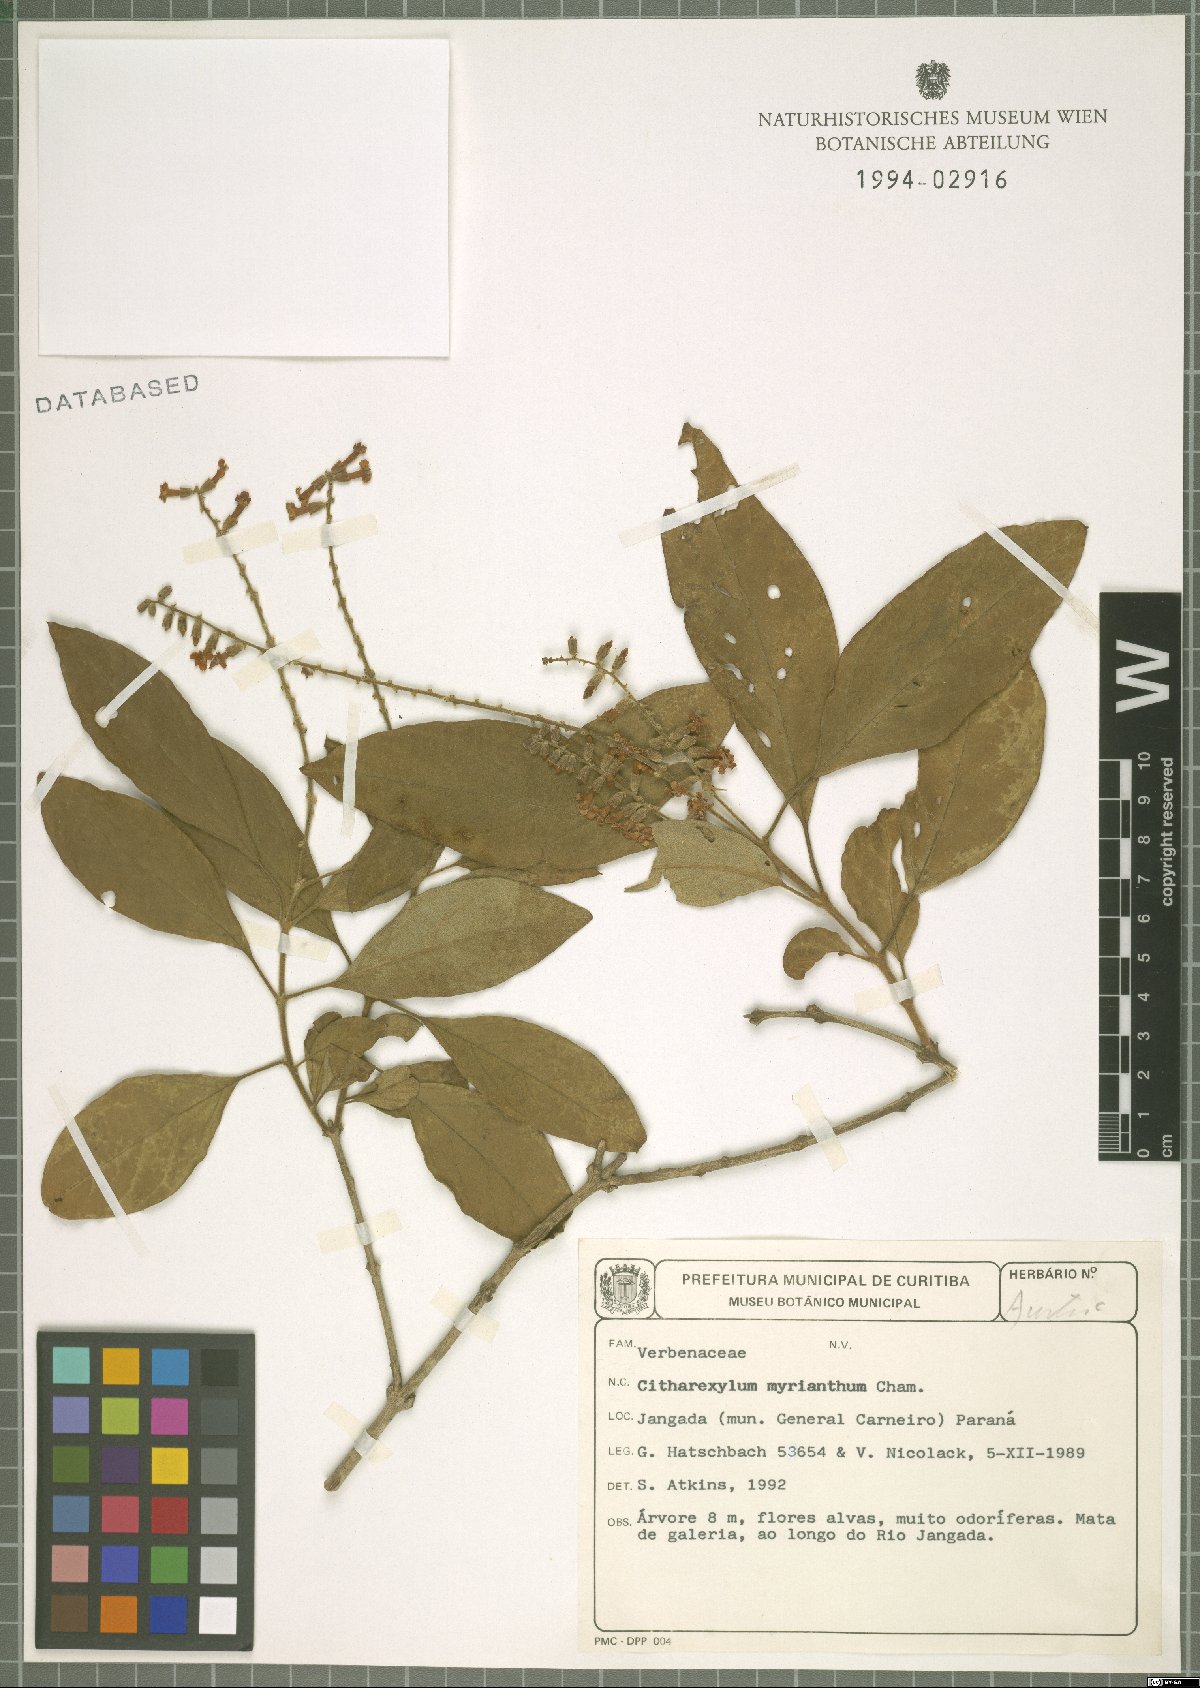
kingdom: Plantae
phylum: Tracheophyta
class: Magnoliopsida
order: Lamiales
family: Verbenaceae
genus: Citharexylum
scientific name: Citharexylum myrianthum
